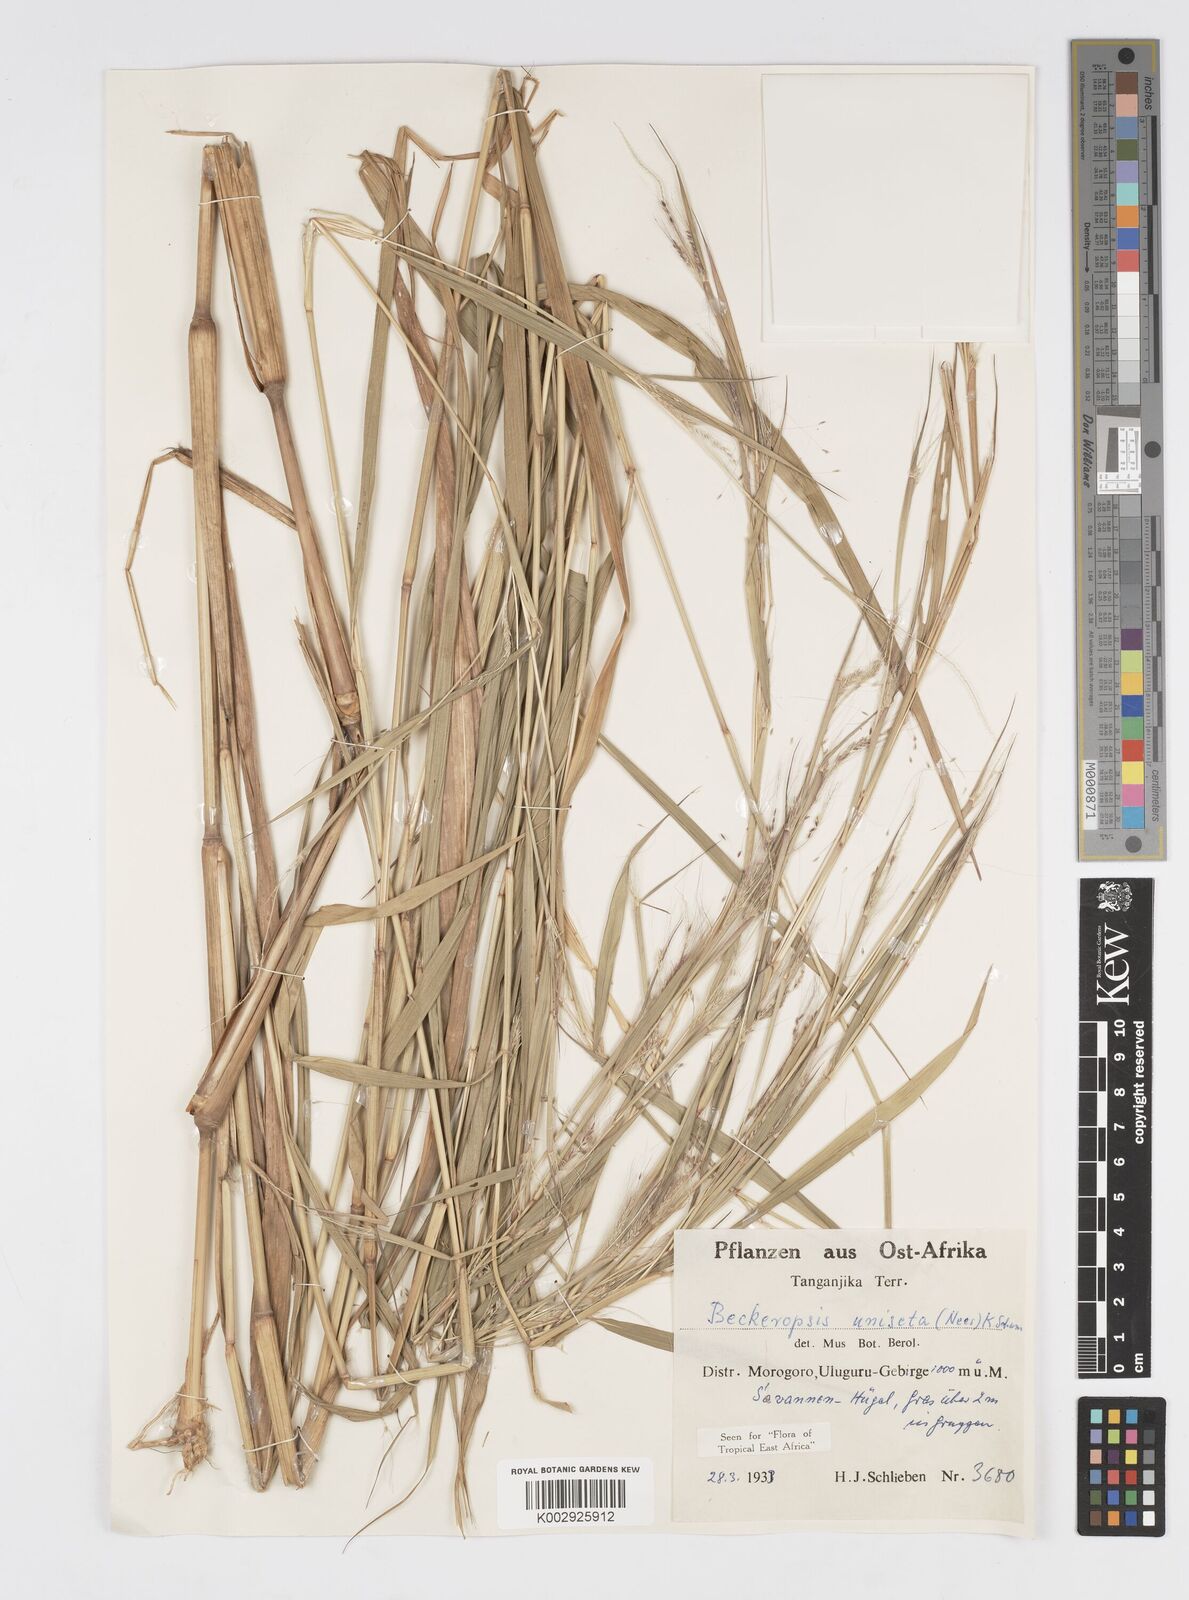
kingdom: Plantae
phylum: Tracheophyta
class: Liliopsida
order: Poales
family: Poaceae
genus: Cenchrus
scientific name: Cenchrus unisetus
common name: Natal grass
